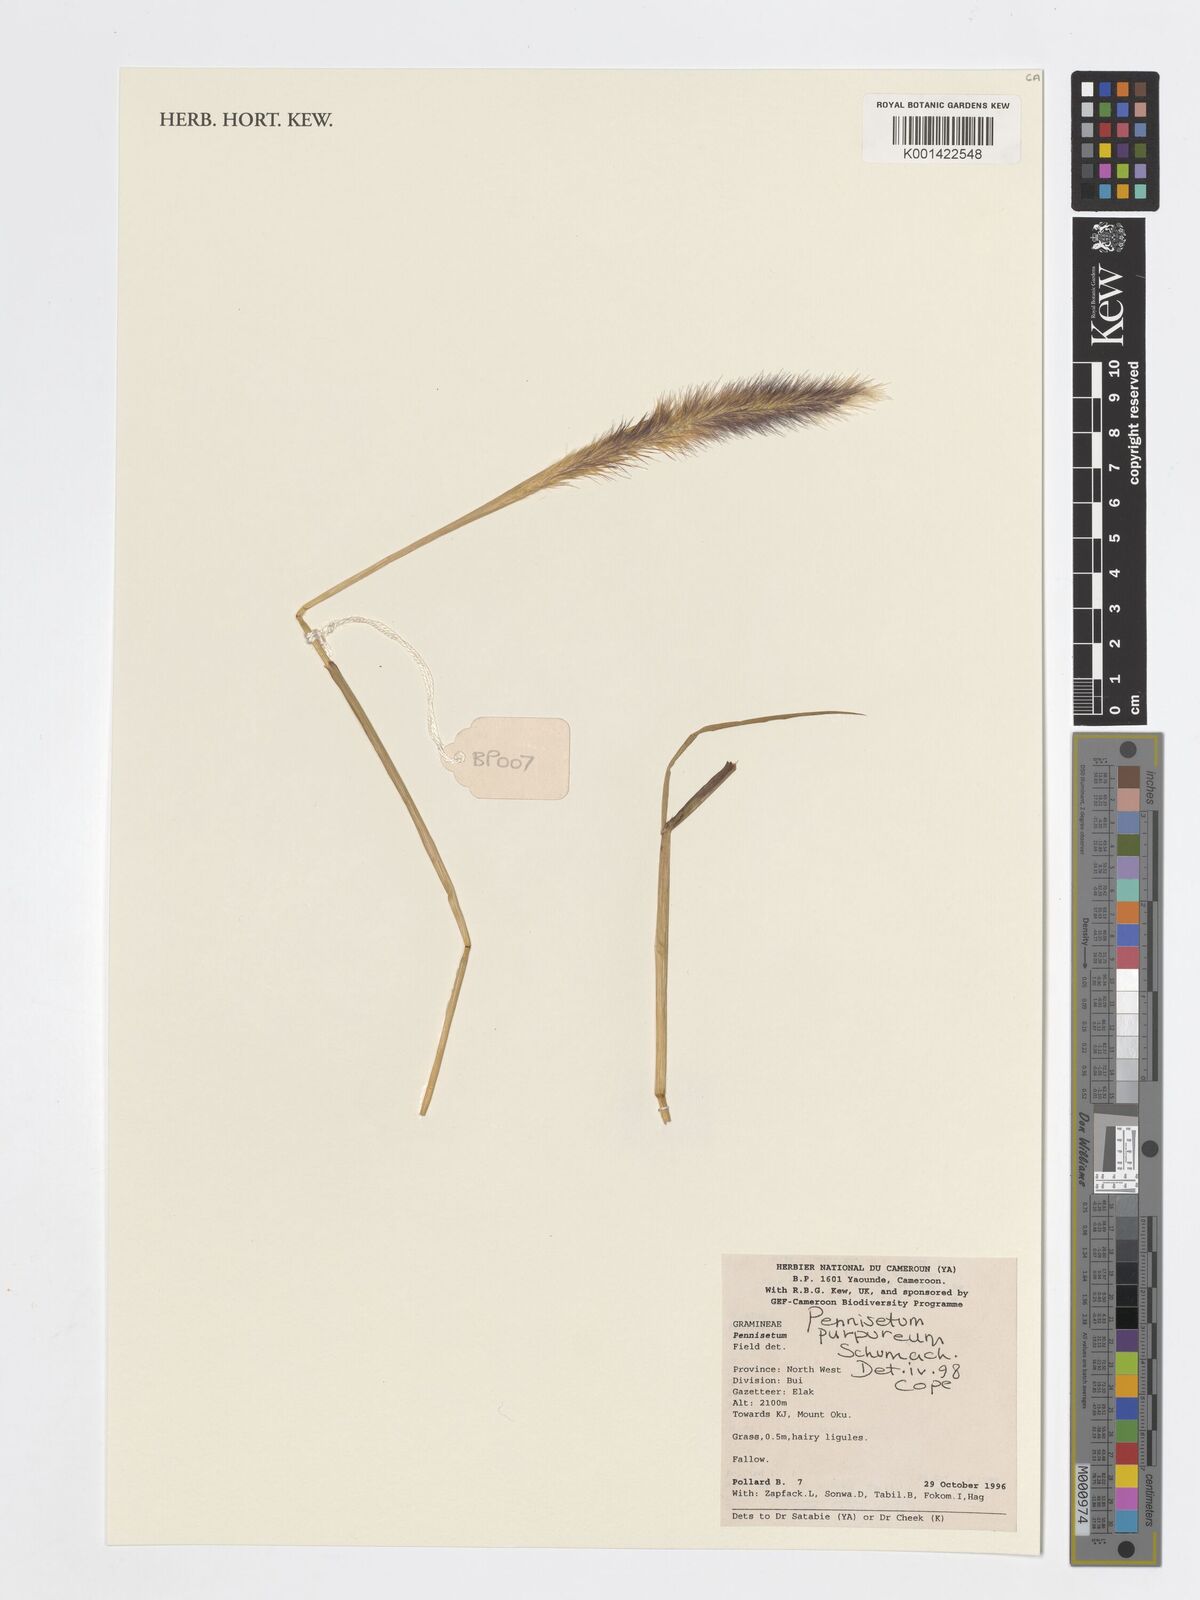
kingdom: Plantae
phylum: Tracheophyta
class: Liliopsida
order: Poales
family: Poaceae
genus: Cenchrus
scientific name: Cenchrus purpureus
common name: Elephant grass
